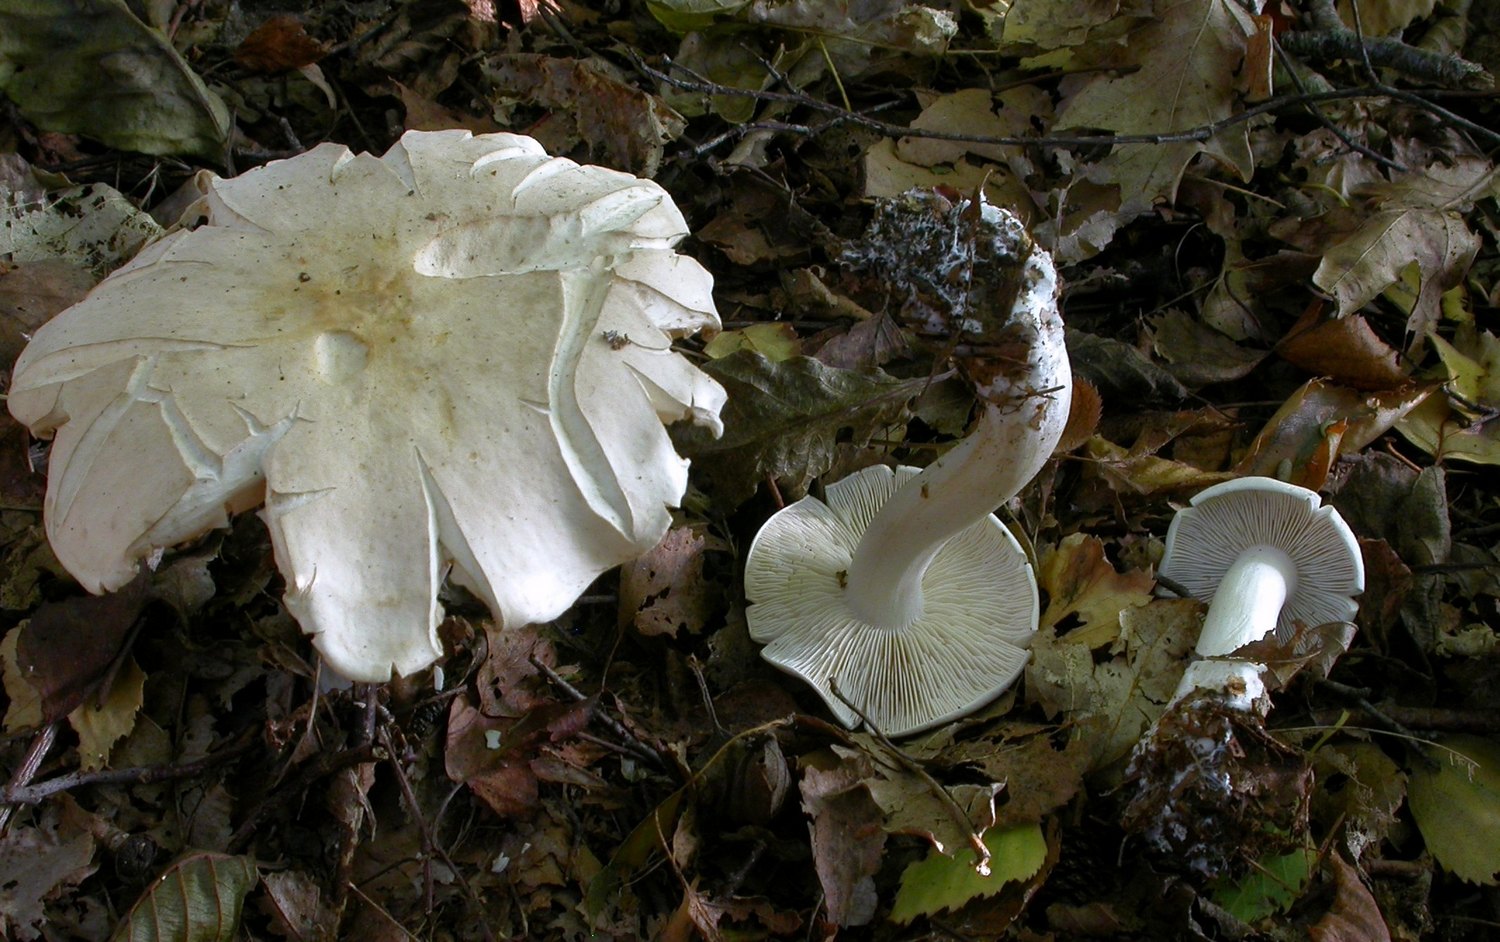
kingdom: Fungi
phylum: Basidiomycota
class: Agaricomycetes
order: Agaricales
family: Tricholomataceae
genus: Tricholoma
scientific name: Tricholoma stiparophyllum
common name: hvid ridderhat
